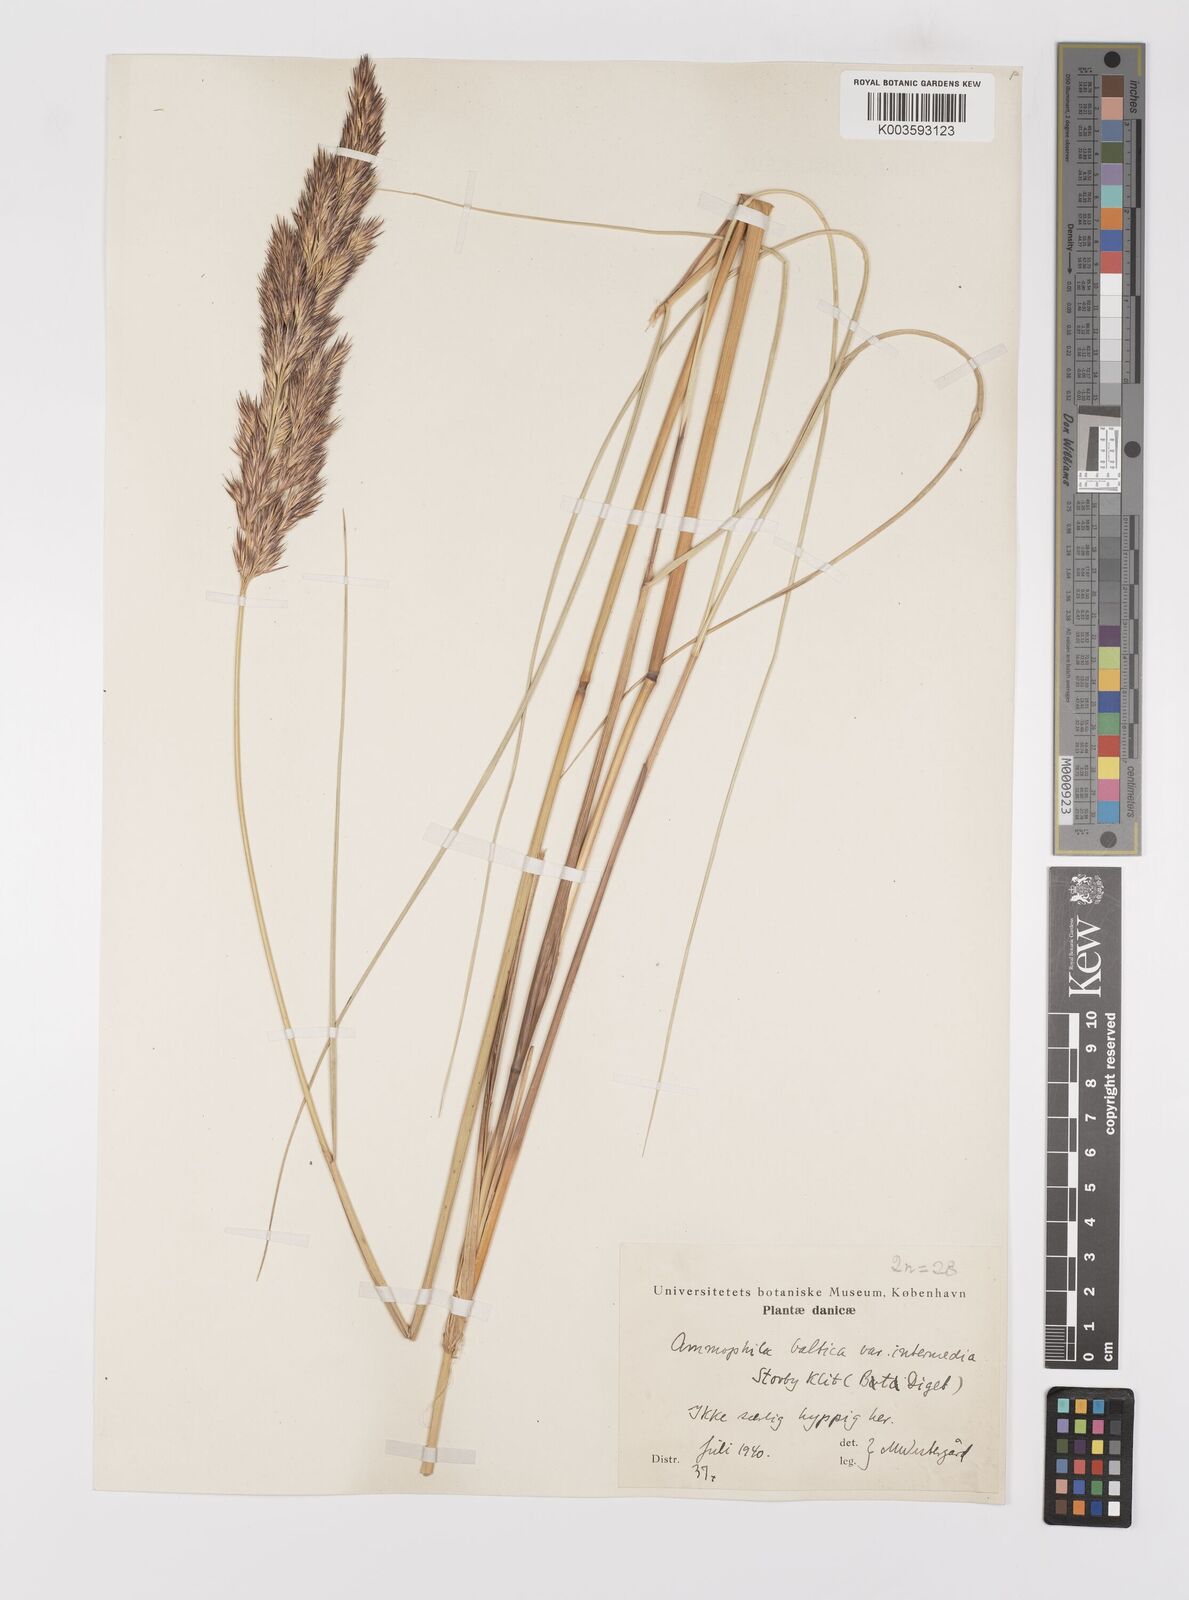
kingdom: Plantae
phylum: Tracheophyta
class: Liliopsida
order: Poales
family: Poaceae
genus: Calamagrostis
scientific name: Calamagrostis baltica
